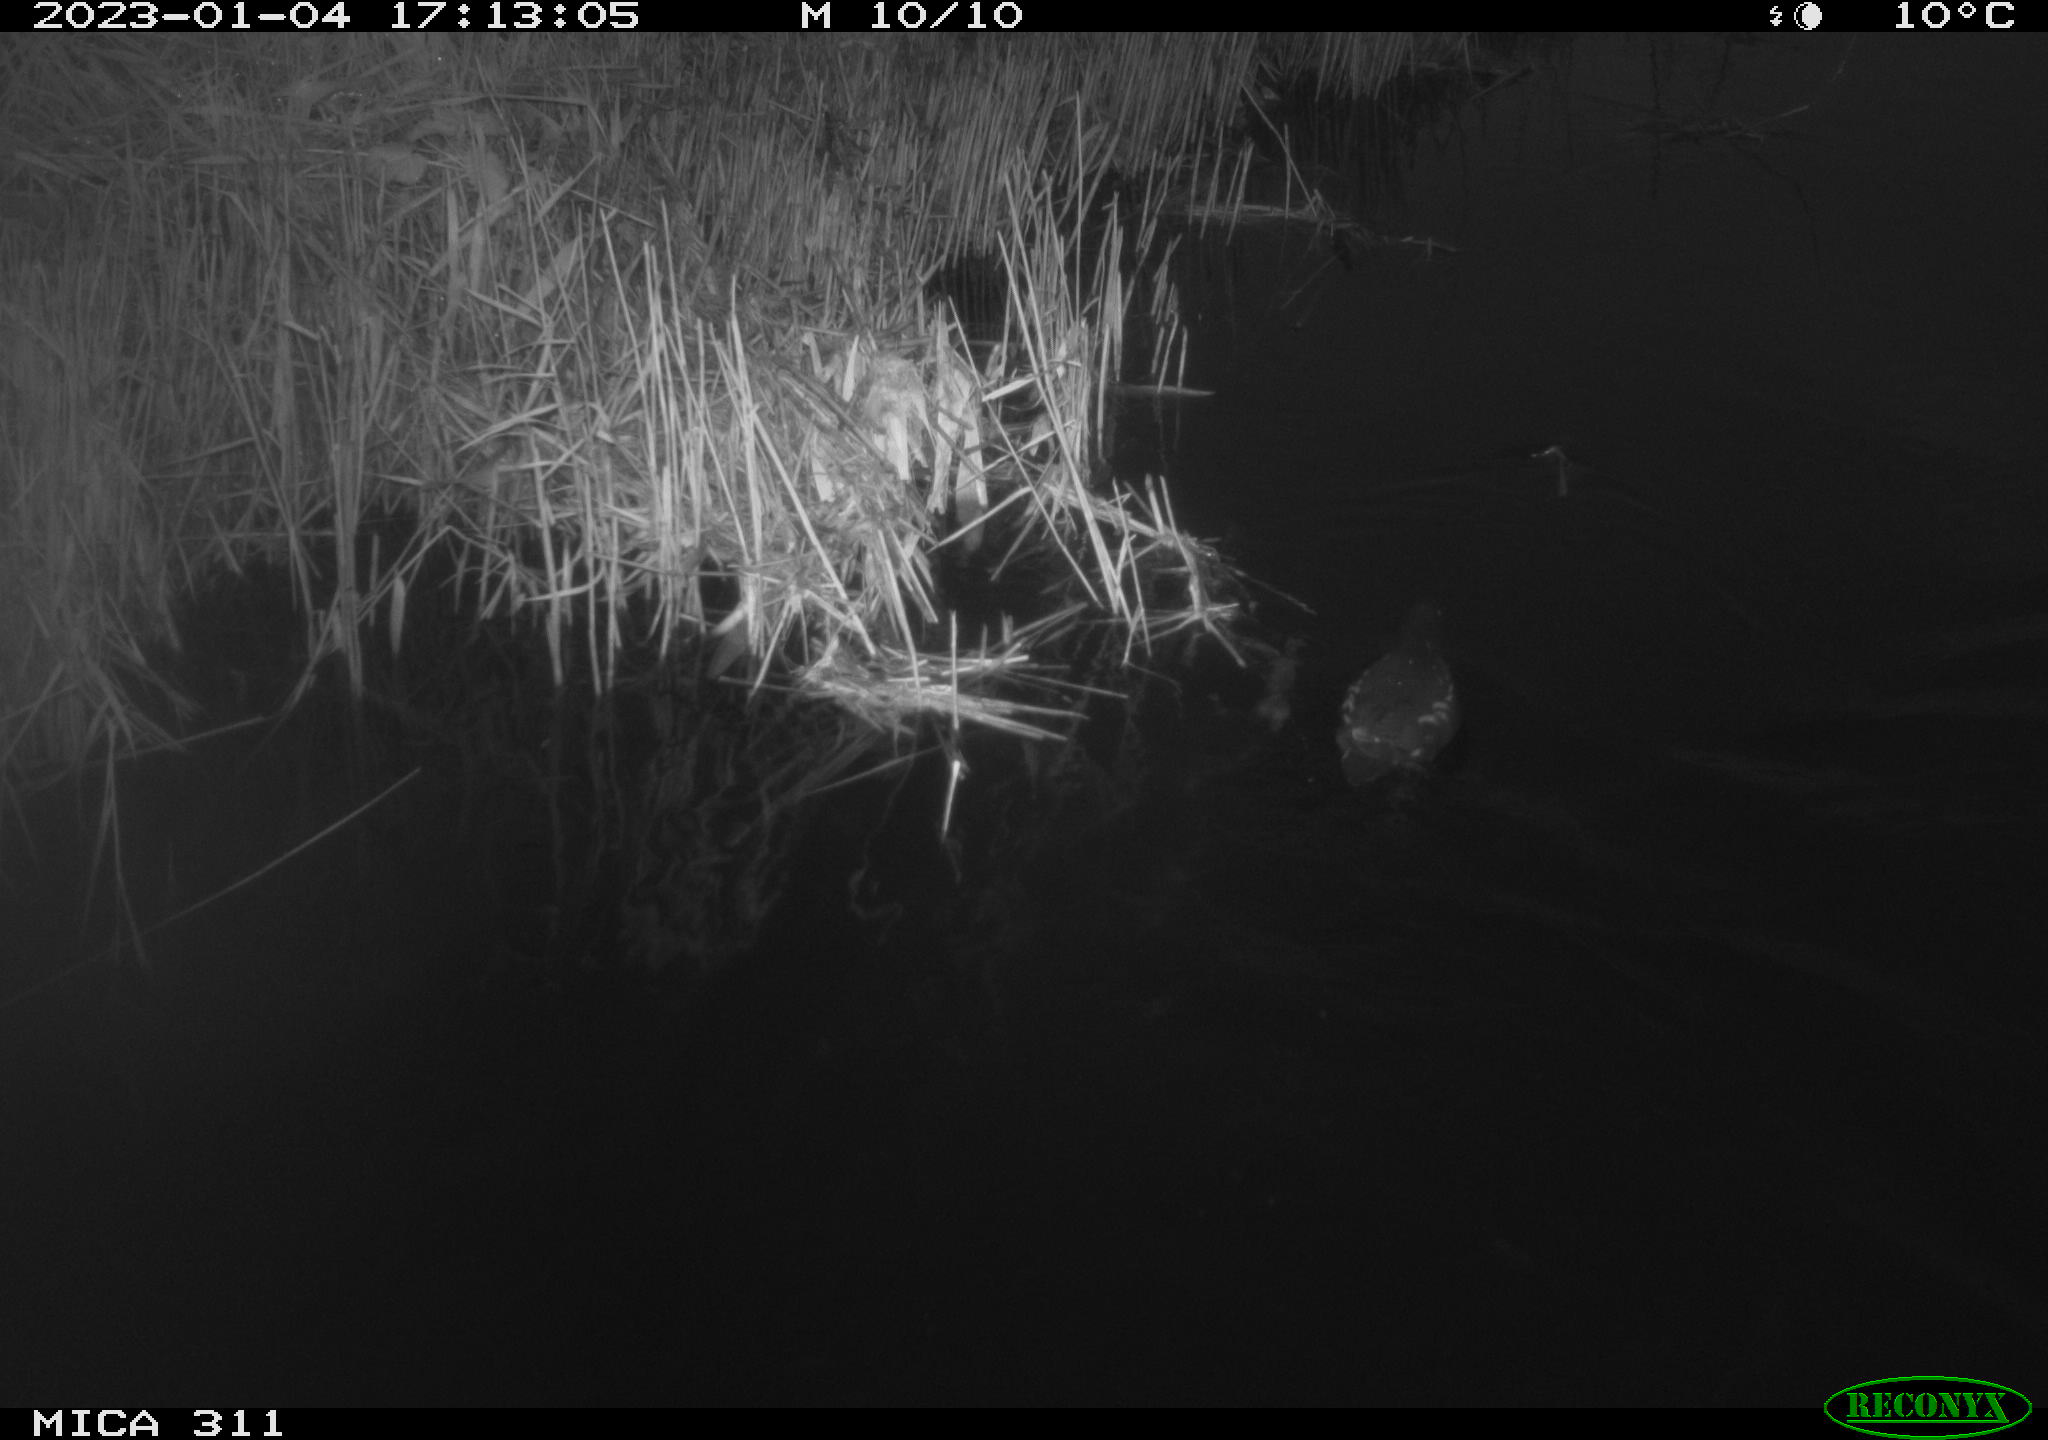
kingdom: Animalia
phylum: Chordata
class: Aves
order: Gruiformes
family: Rallidae
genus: Gallinula
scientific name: Gallinula chloropus
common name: Common moorhen
